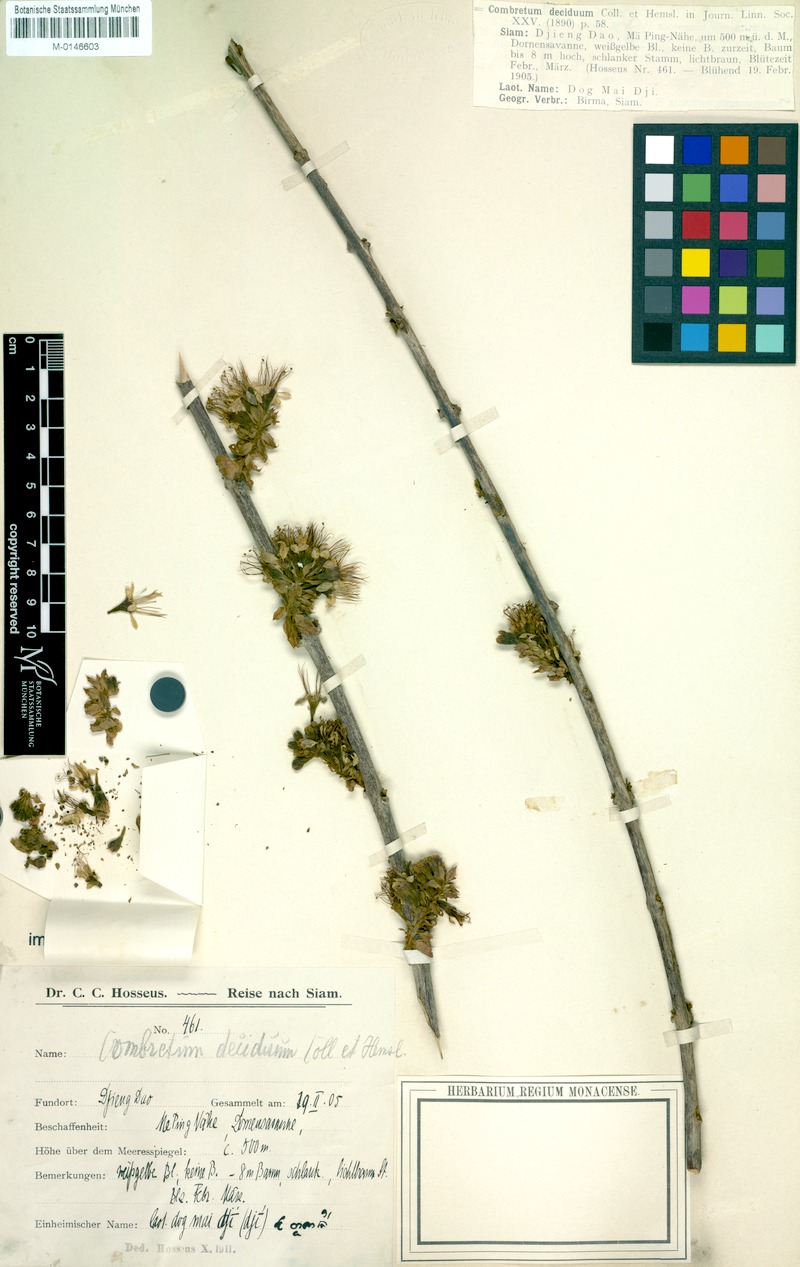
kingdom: Plantae
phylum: Tracheophyta
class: Magnoliopsida
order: Myrtales
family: Combretaceae
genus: Combretum
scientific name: Combretum deciduum
